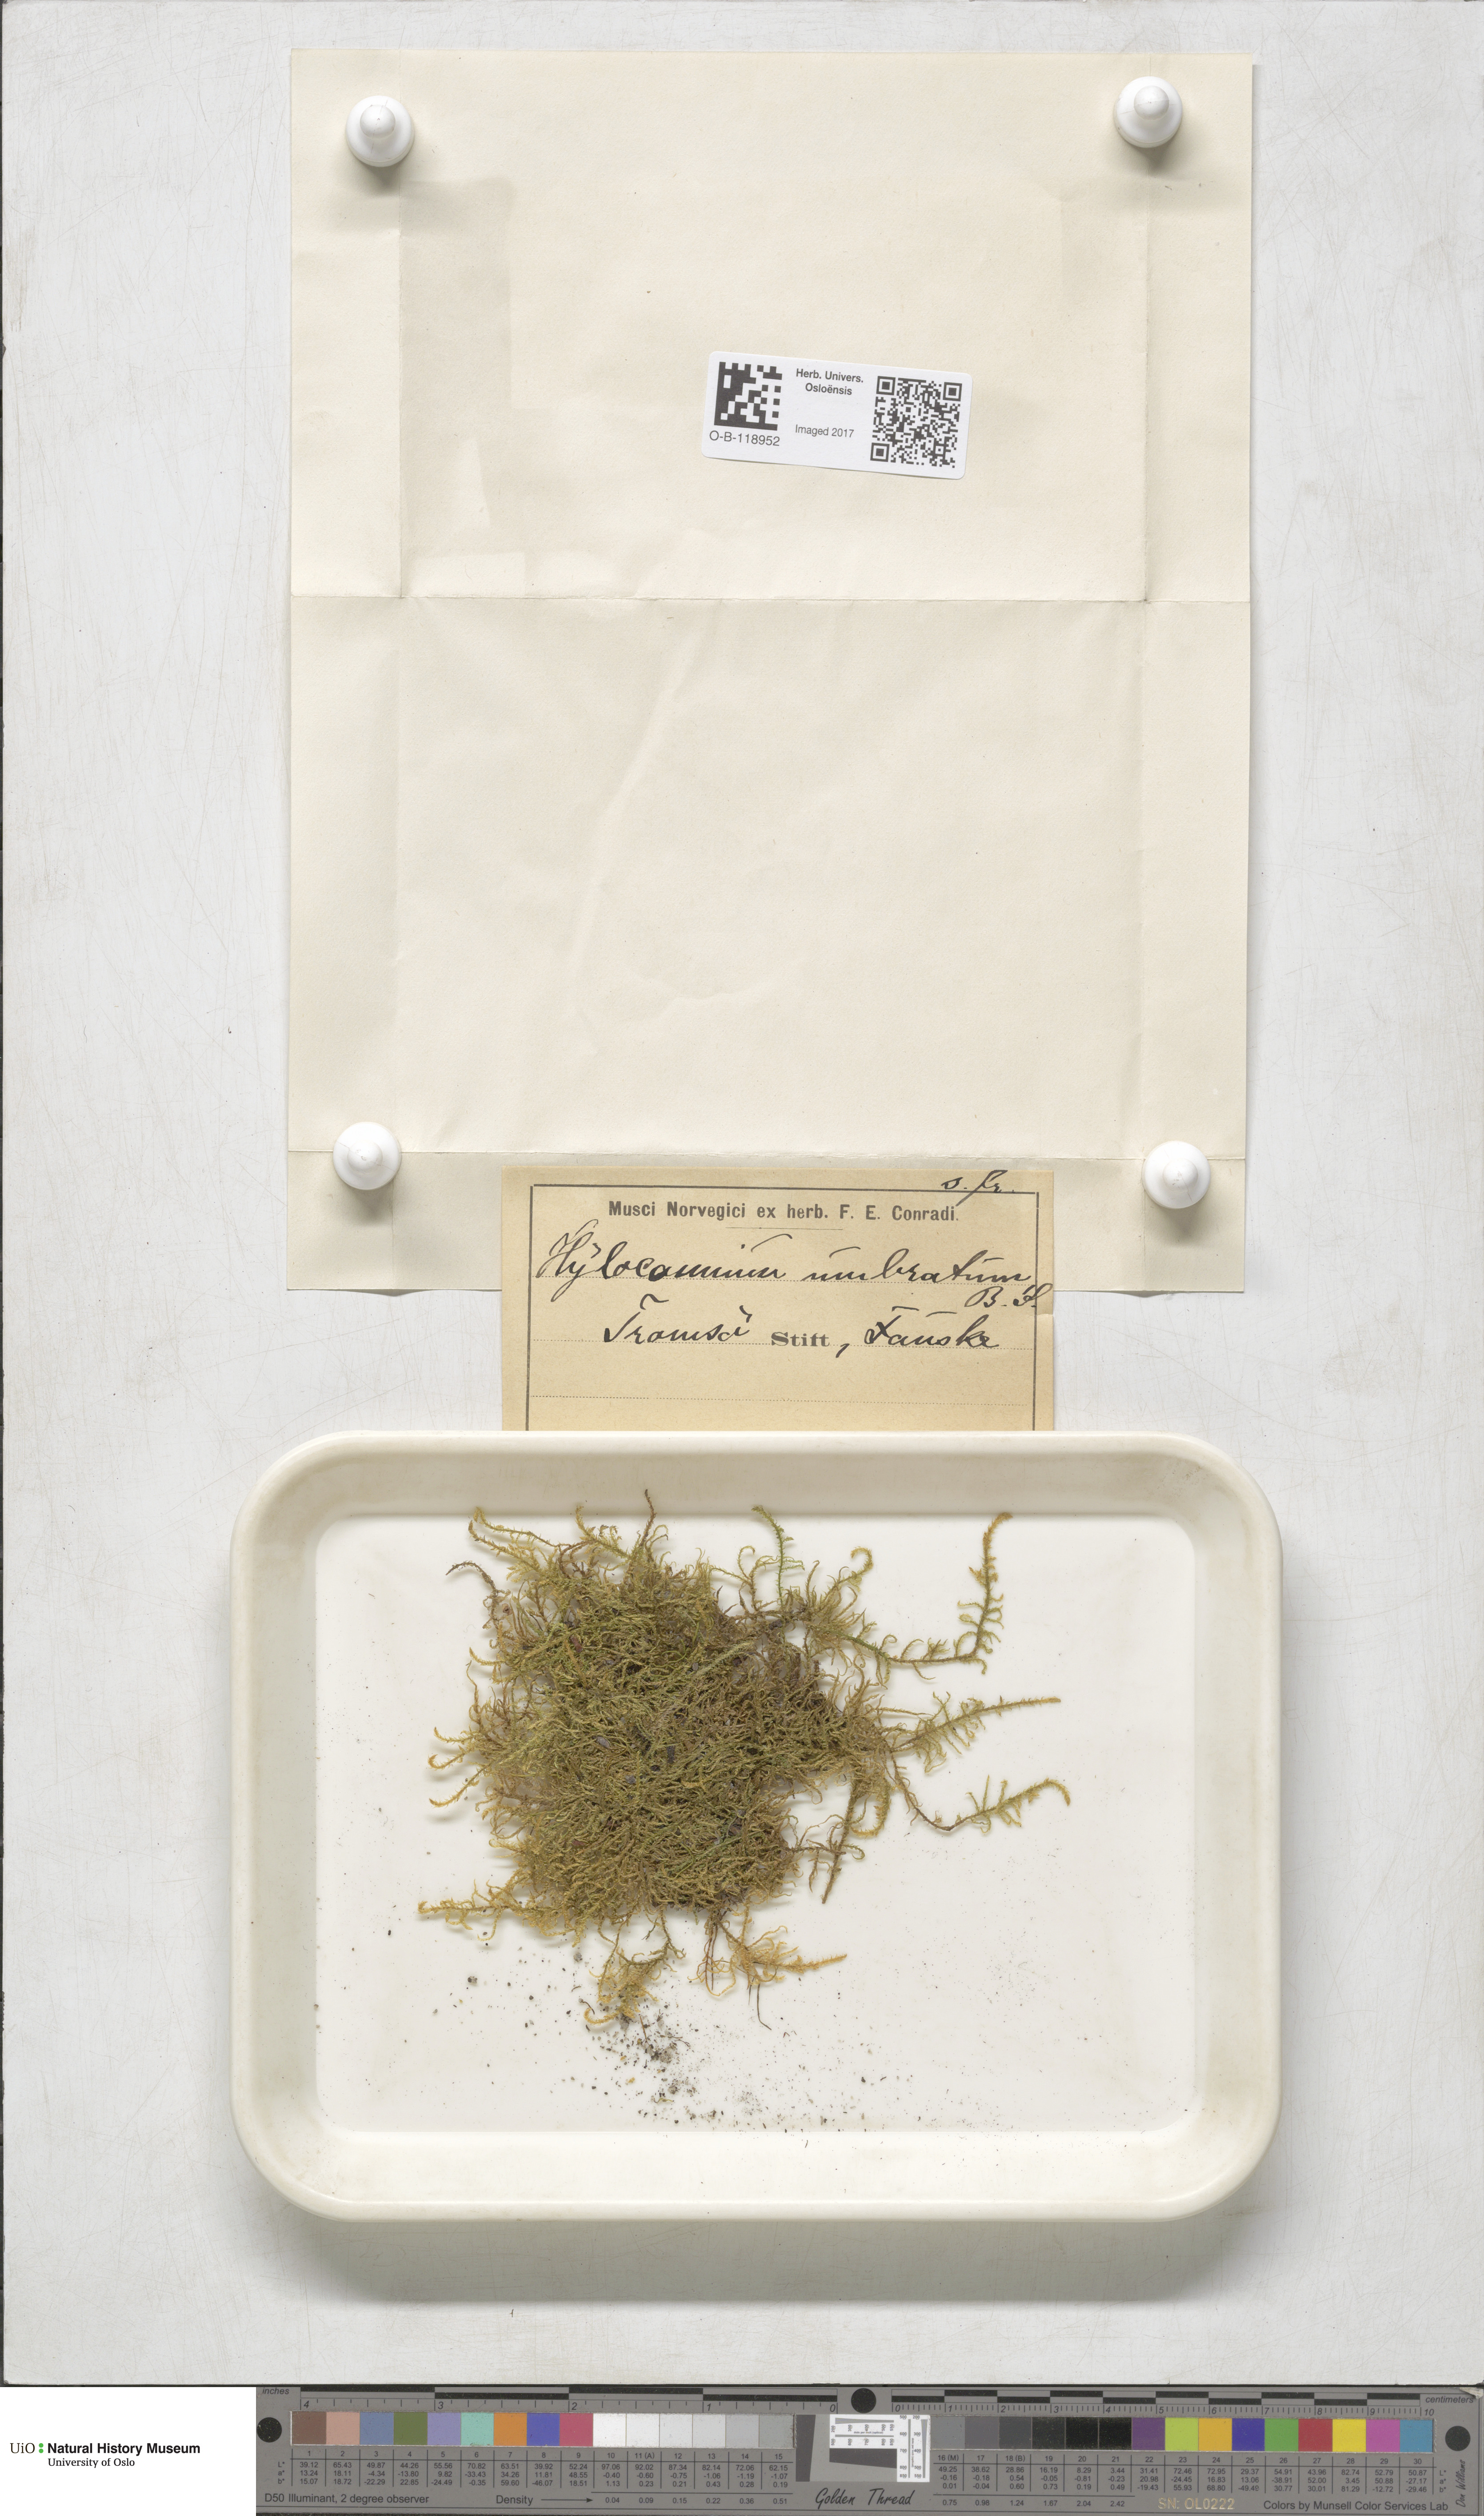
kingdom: Plantae
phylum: Bryophyta
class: Bryopsida
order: Hypnales
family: Hylocomiaceae
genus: Hylocomiastrum
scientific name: Hylocomiastrum umbratum
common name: Shaded woods moss
